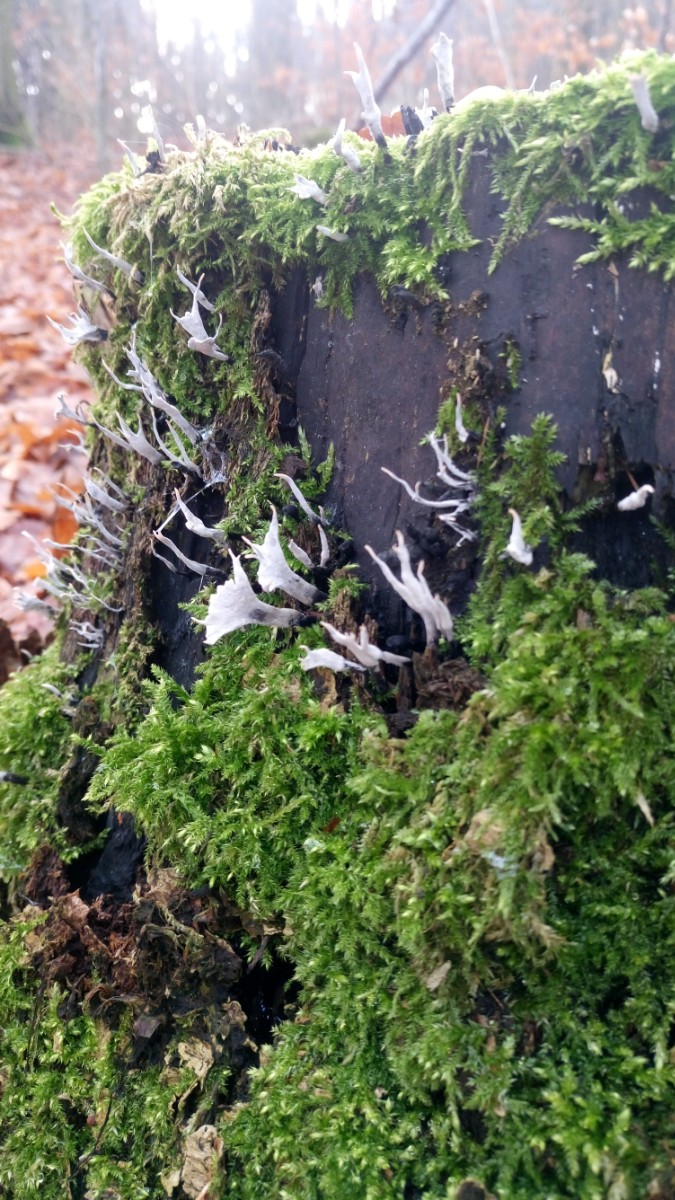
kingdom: Fungi
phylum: Ascomycota
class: Sordariomycetes
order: Xylariales
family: Xylariaceae
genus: Xylaria
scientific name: Xylaria hypoxylon
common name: grenet stødsvamp
